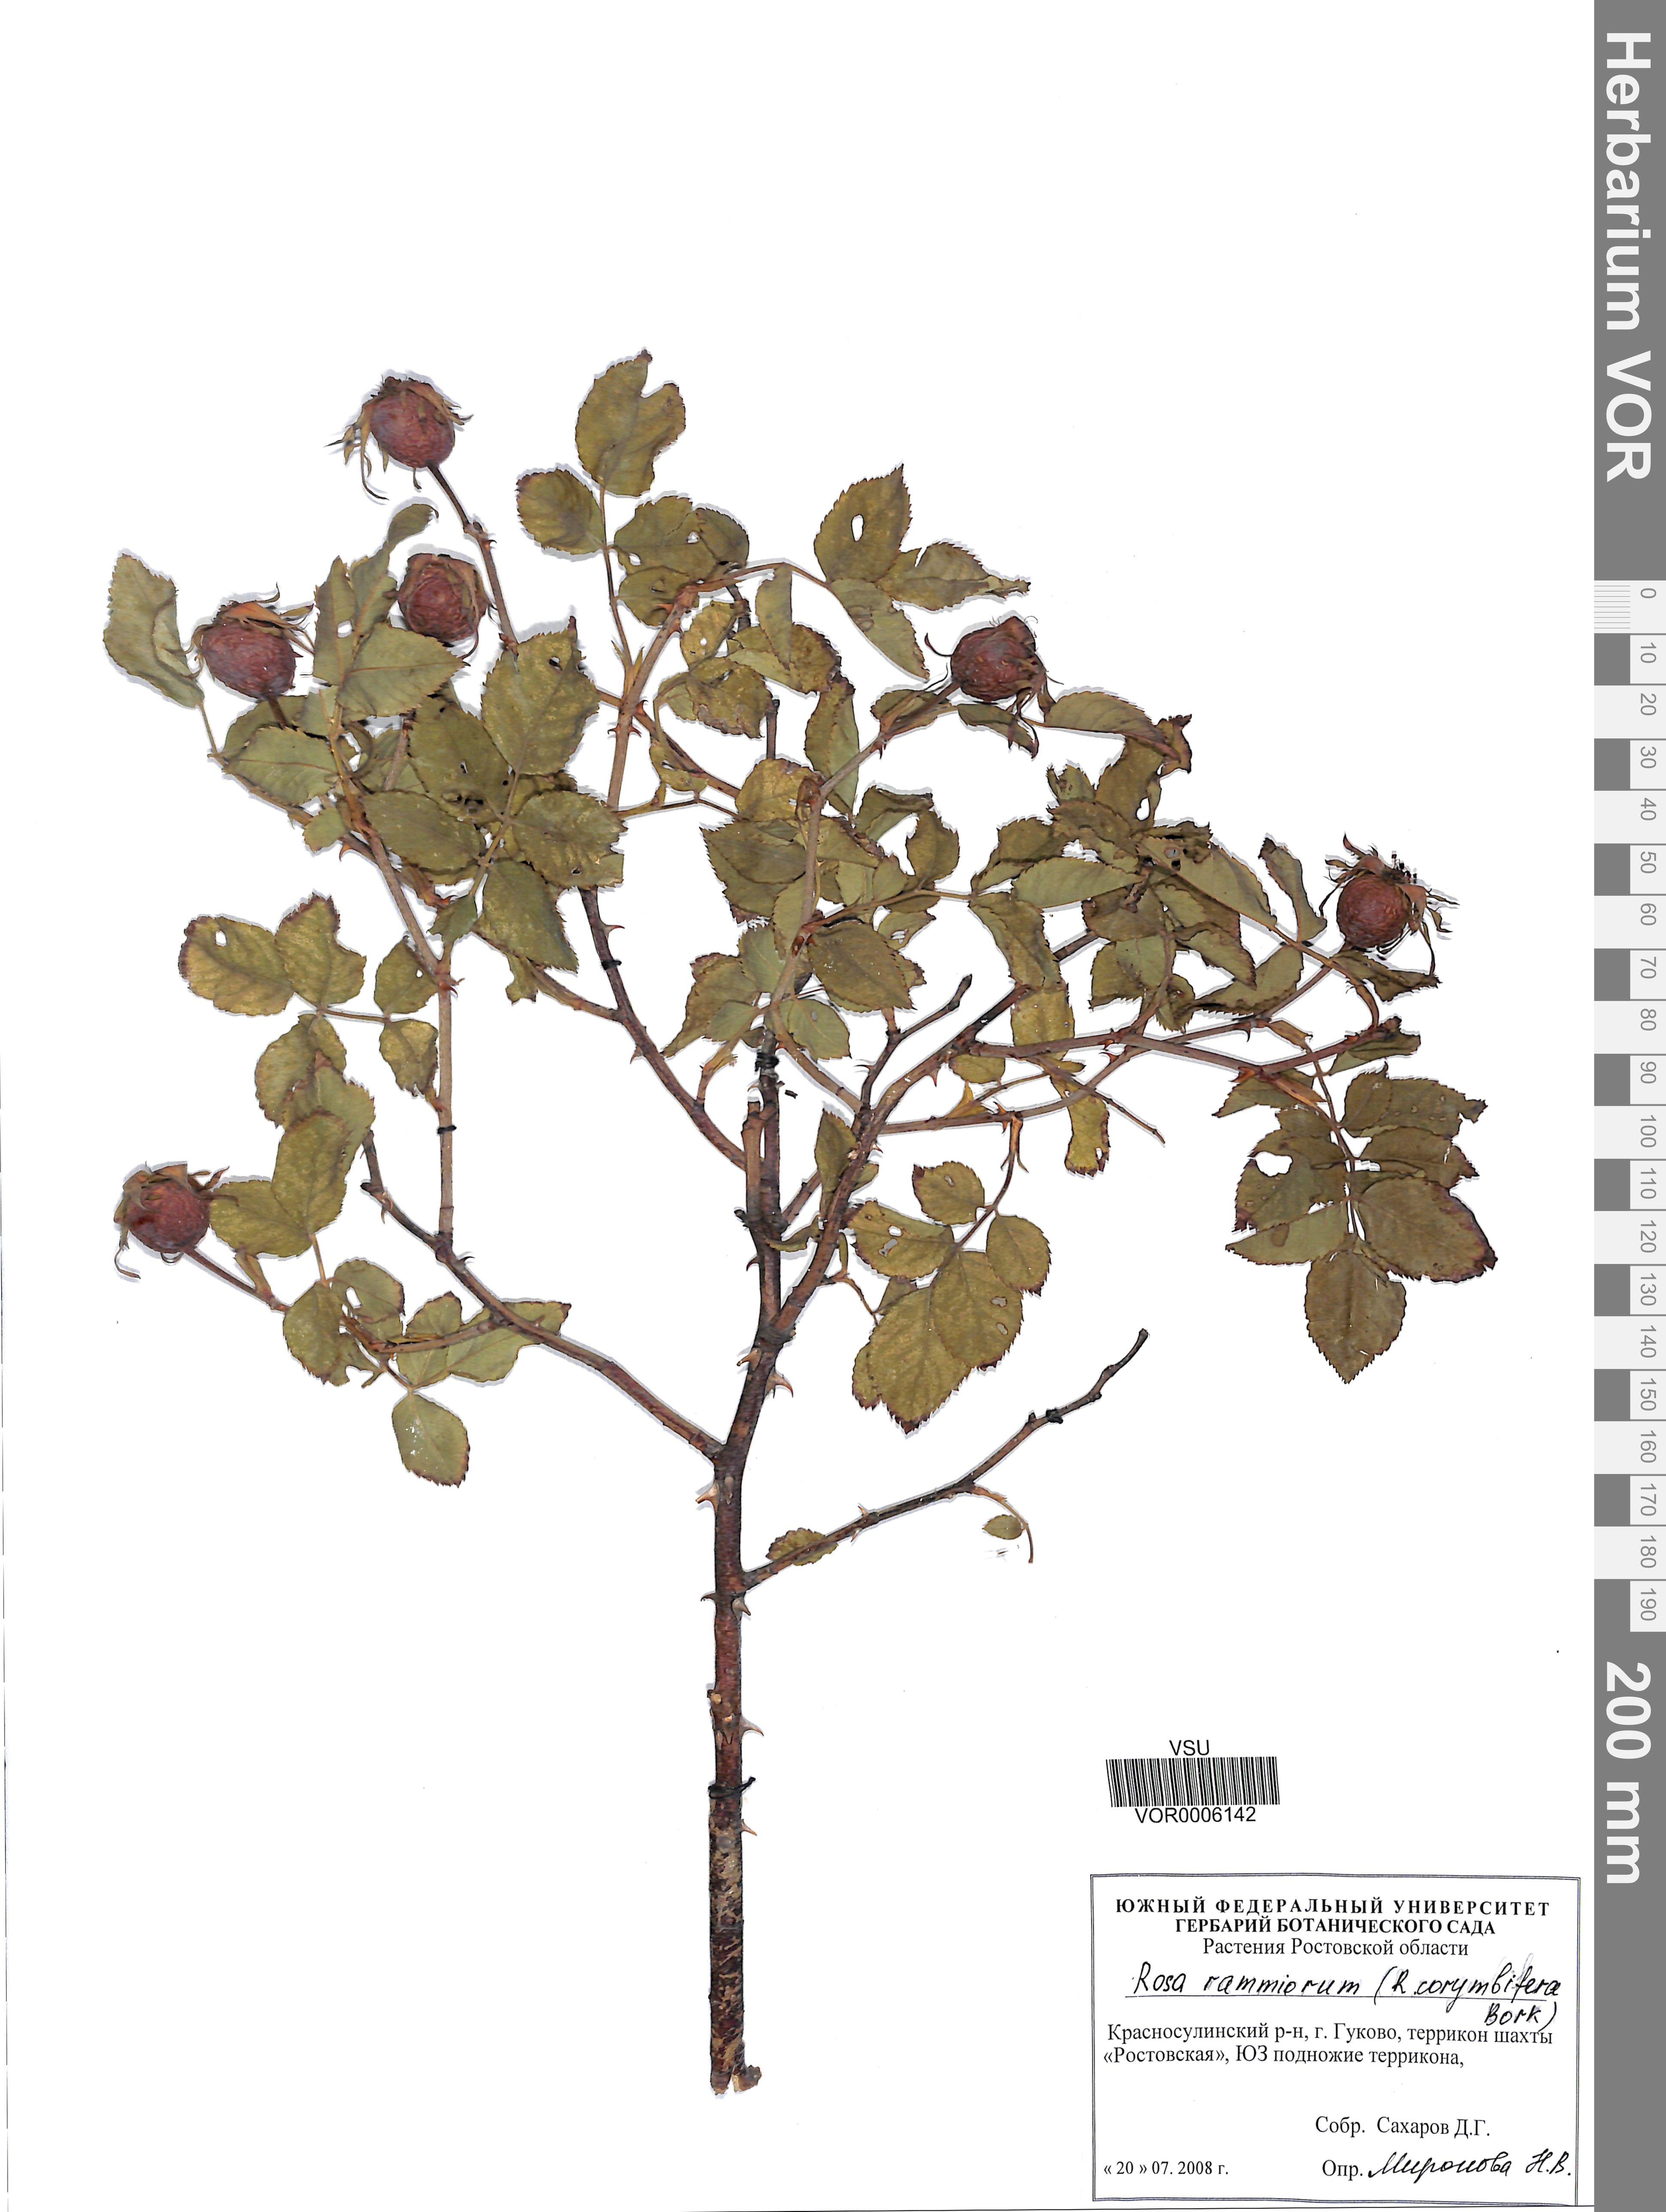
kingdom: Plantae
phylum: Tracheophyta
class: Magnoliopsida
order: Rosales
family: Rosaceae
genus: Rosa
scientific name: Rosa corymbifera
